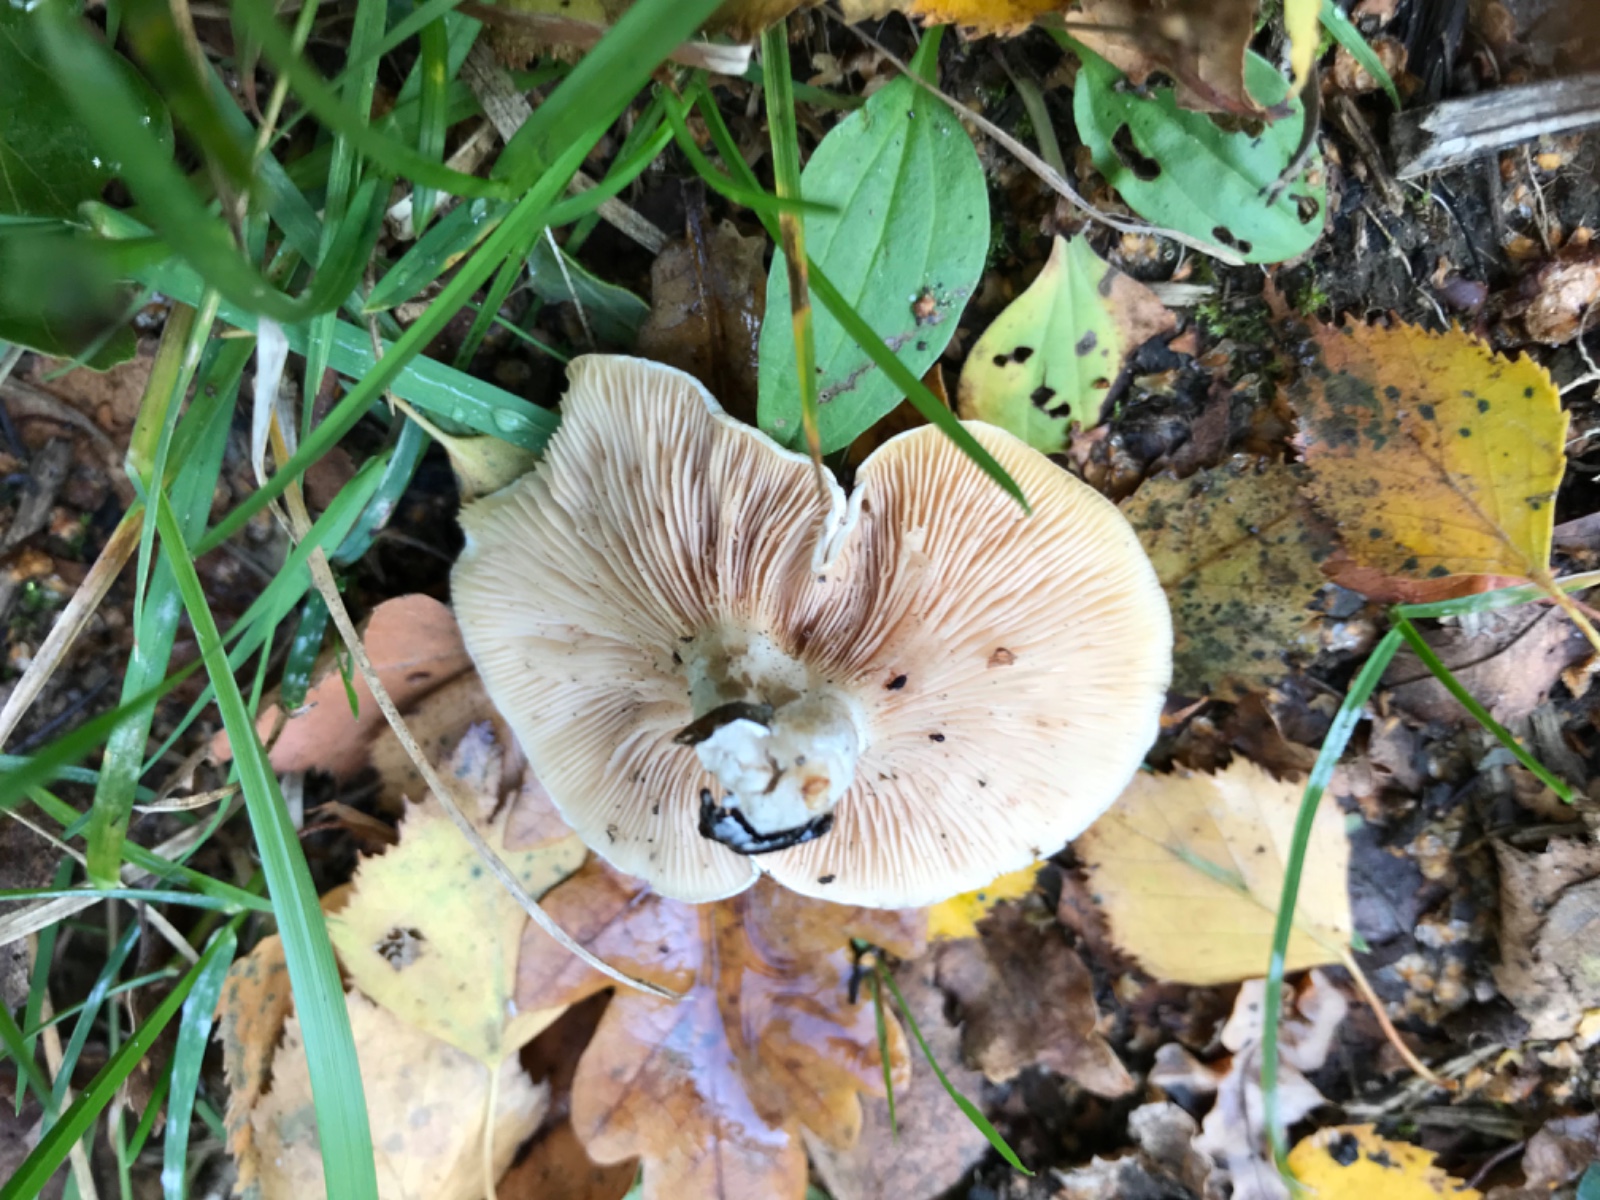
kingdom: Fungi
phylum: Basidiomycota
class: Agaricomycetes
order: Agaricales
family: Entolomataceae
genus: Clitopilus
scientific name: Clitopilus prunulus
